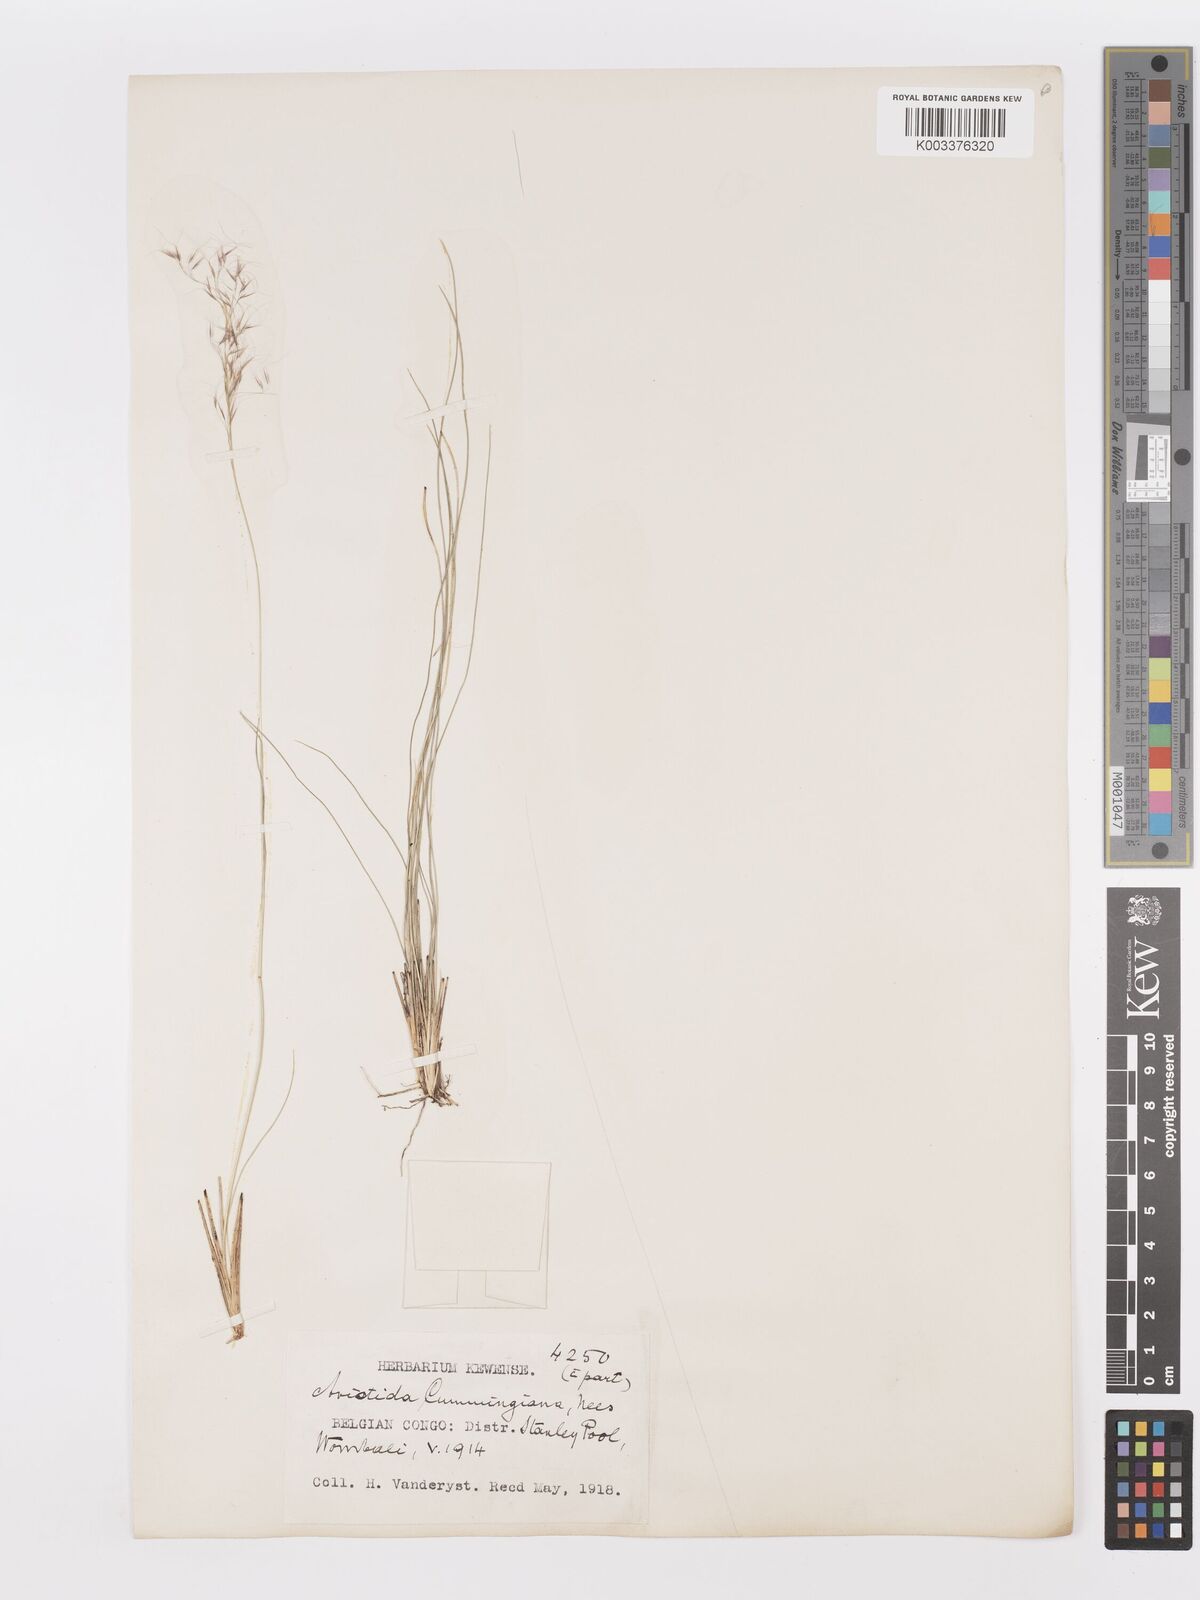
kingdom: Plantae
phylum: Tracheophyta
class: Liliopsida
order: Poales
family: Poaceae
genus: Aristida
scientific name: Aristida recta
